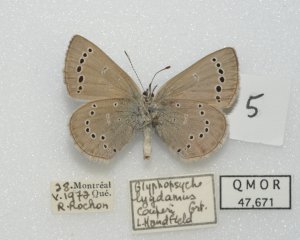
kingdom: Animalia
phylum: Arthropoda
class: Insecta
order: Lepidoptera
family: Lycaenidae
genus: Glaucopsyche
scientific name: Glaucopsyche lygdamus
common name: Silvery Blue
